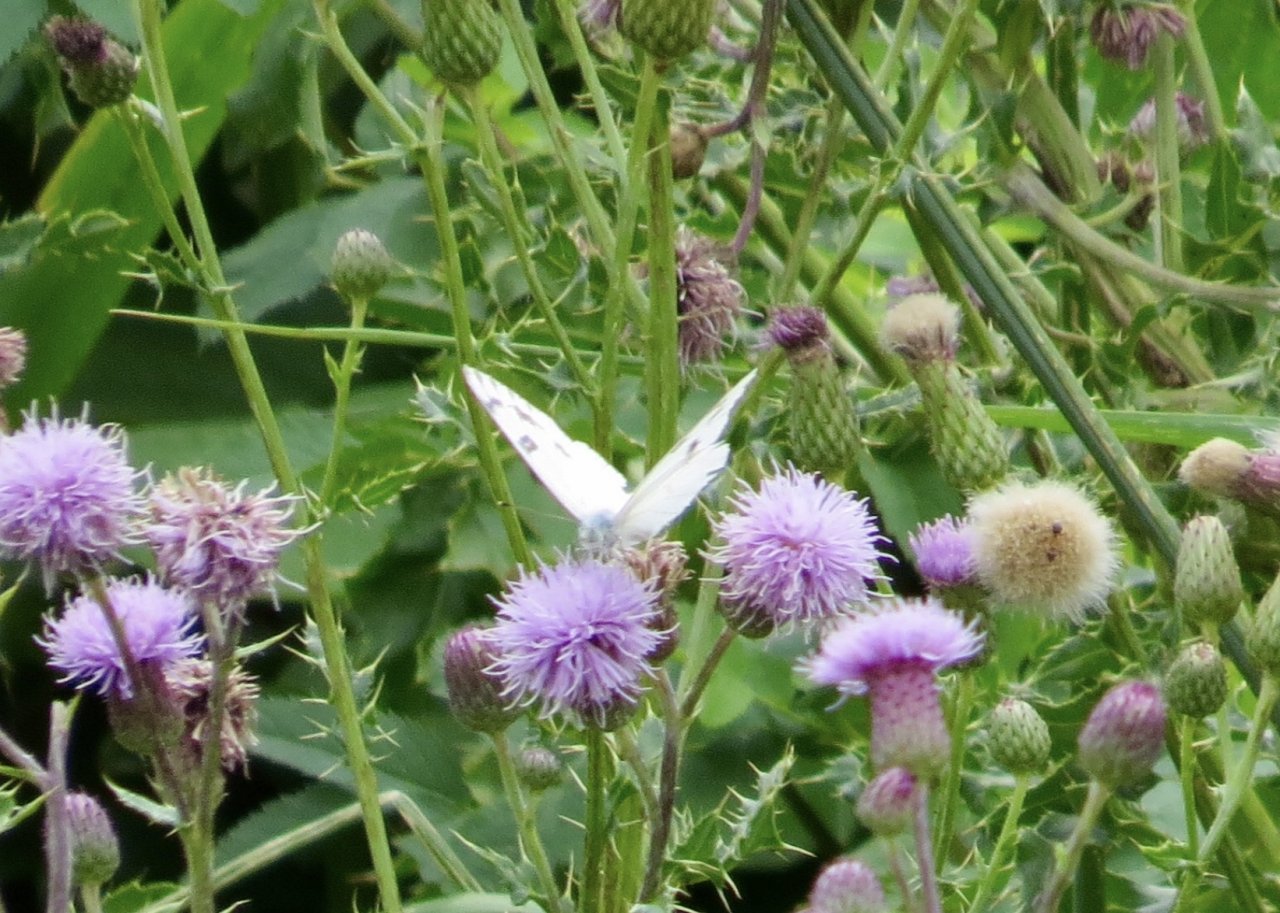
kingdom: Animalia
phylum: Arthropoda
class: Insecta
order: Lepidoptera
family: Pieridae
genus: Pontia
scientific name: Pontia occidentalis
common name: Western White
